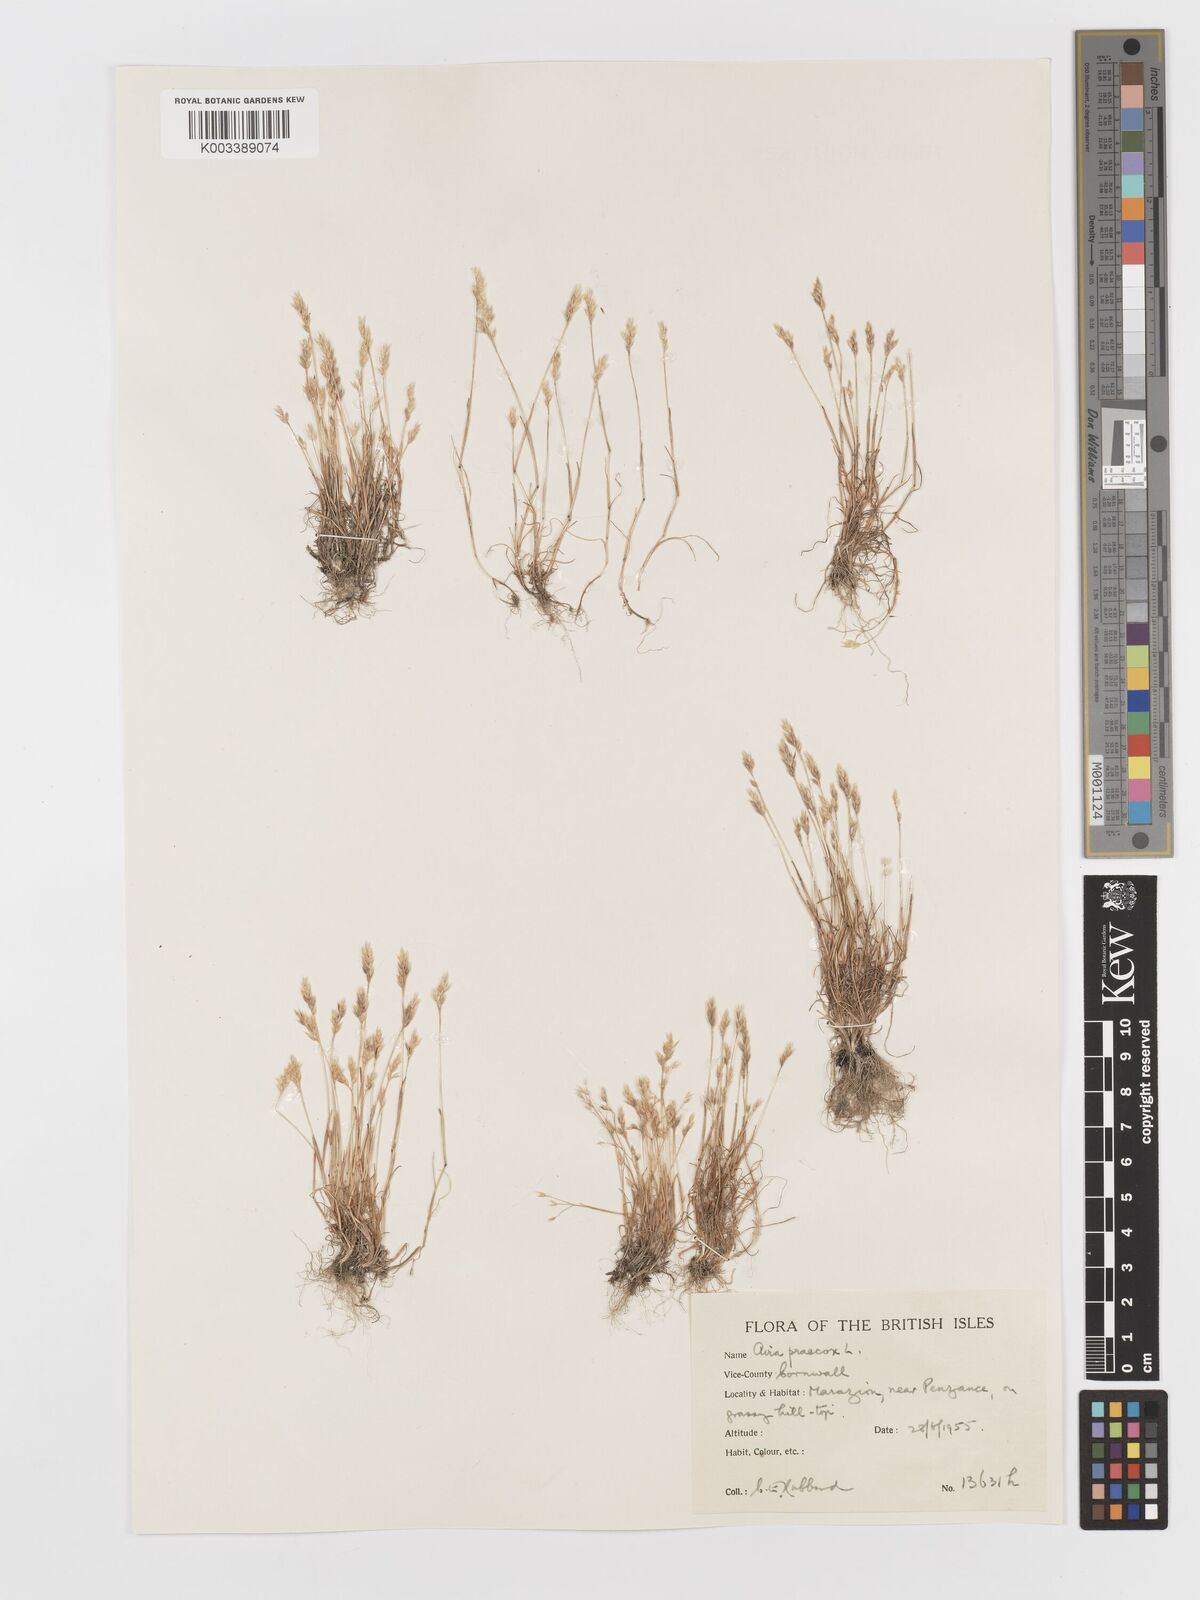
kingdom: Plantae
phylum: Tracheophyta
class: Liliopsida
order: Poales
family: Poaceae
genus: Aira
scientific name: Aira praecox
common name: Early hair-grass
